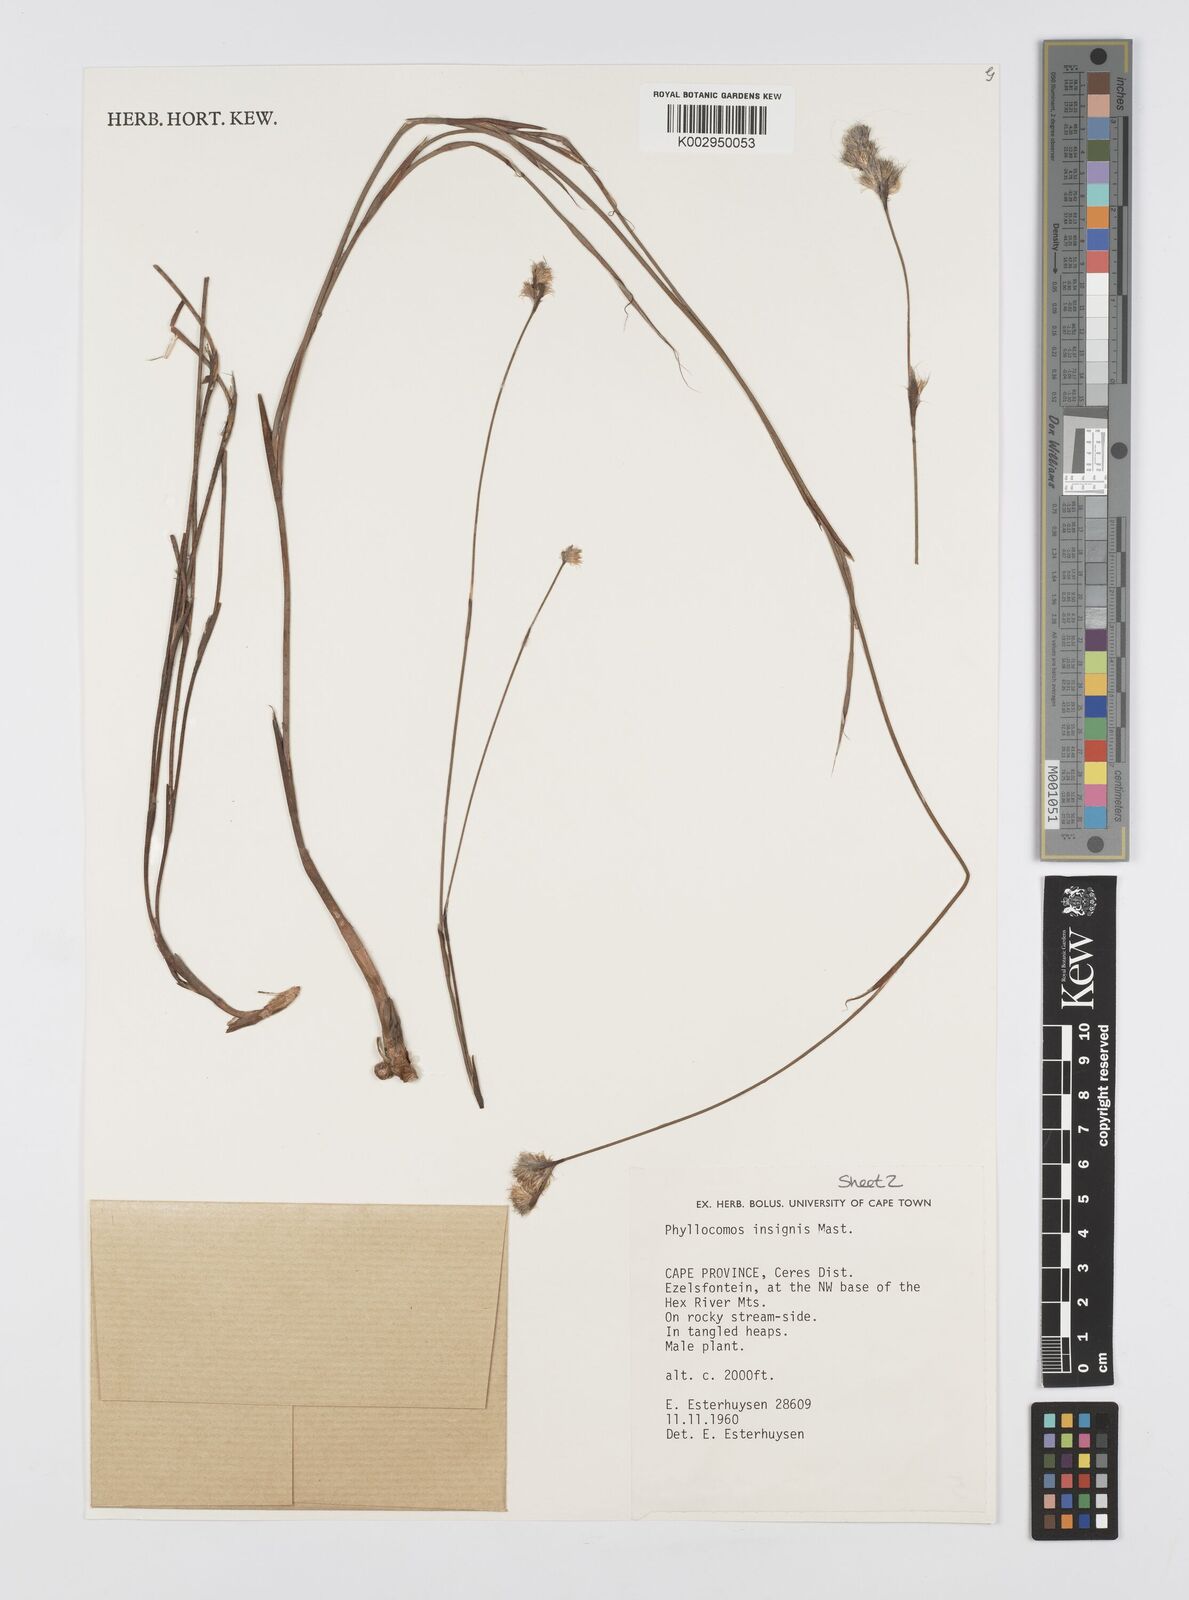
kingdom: Plantae
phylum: Tracheophyta
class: Liliopsida
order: Poales
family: Restionaceae
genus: Anthochortus
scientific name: Anthochortus insignis
